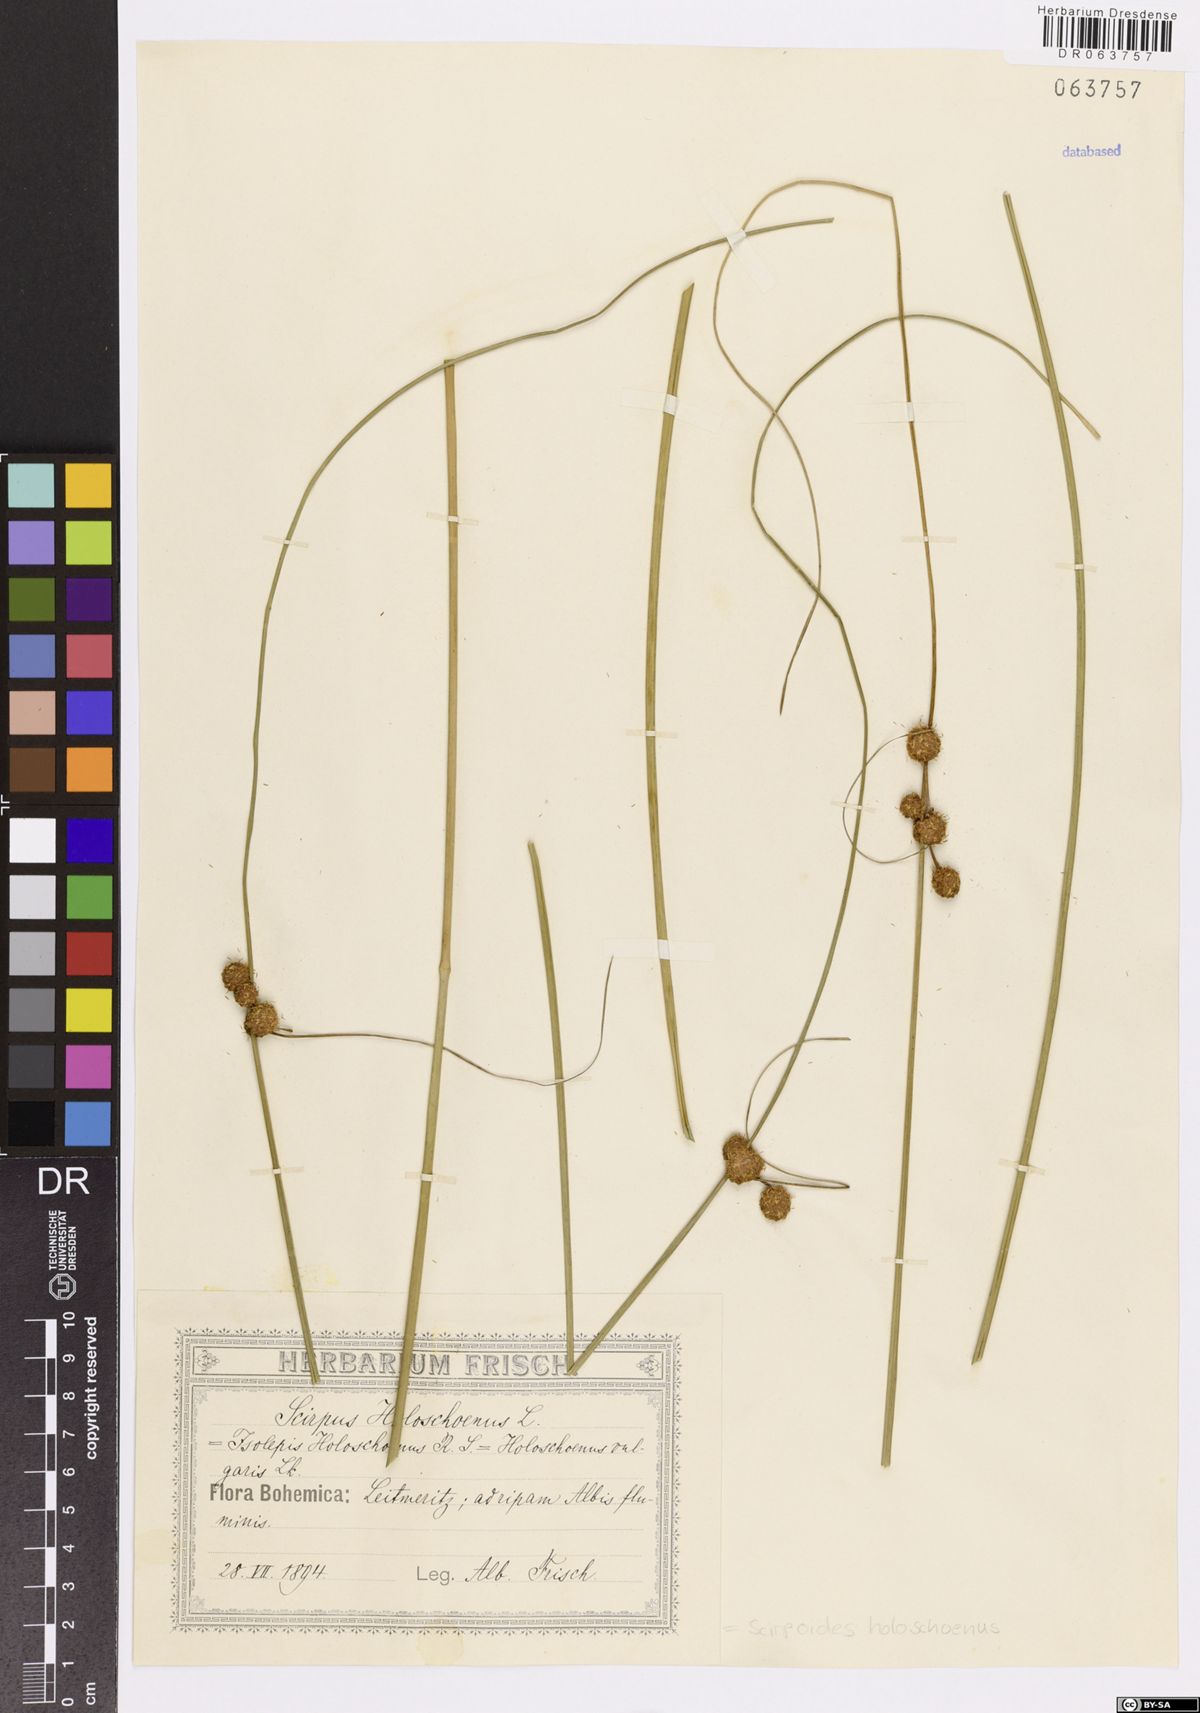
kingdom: Plantae
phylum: Tracheophyta
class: Liliopsida
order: Poales
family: Cyperaceae
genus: Scirpoides
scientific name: Scirpoides holoschoenus
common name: Round-headed club-rush
